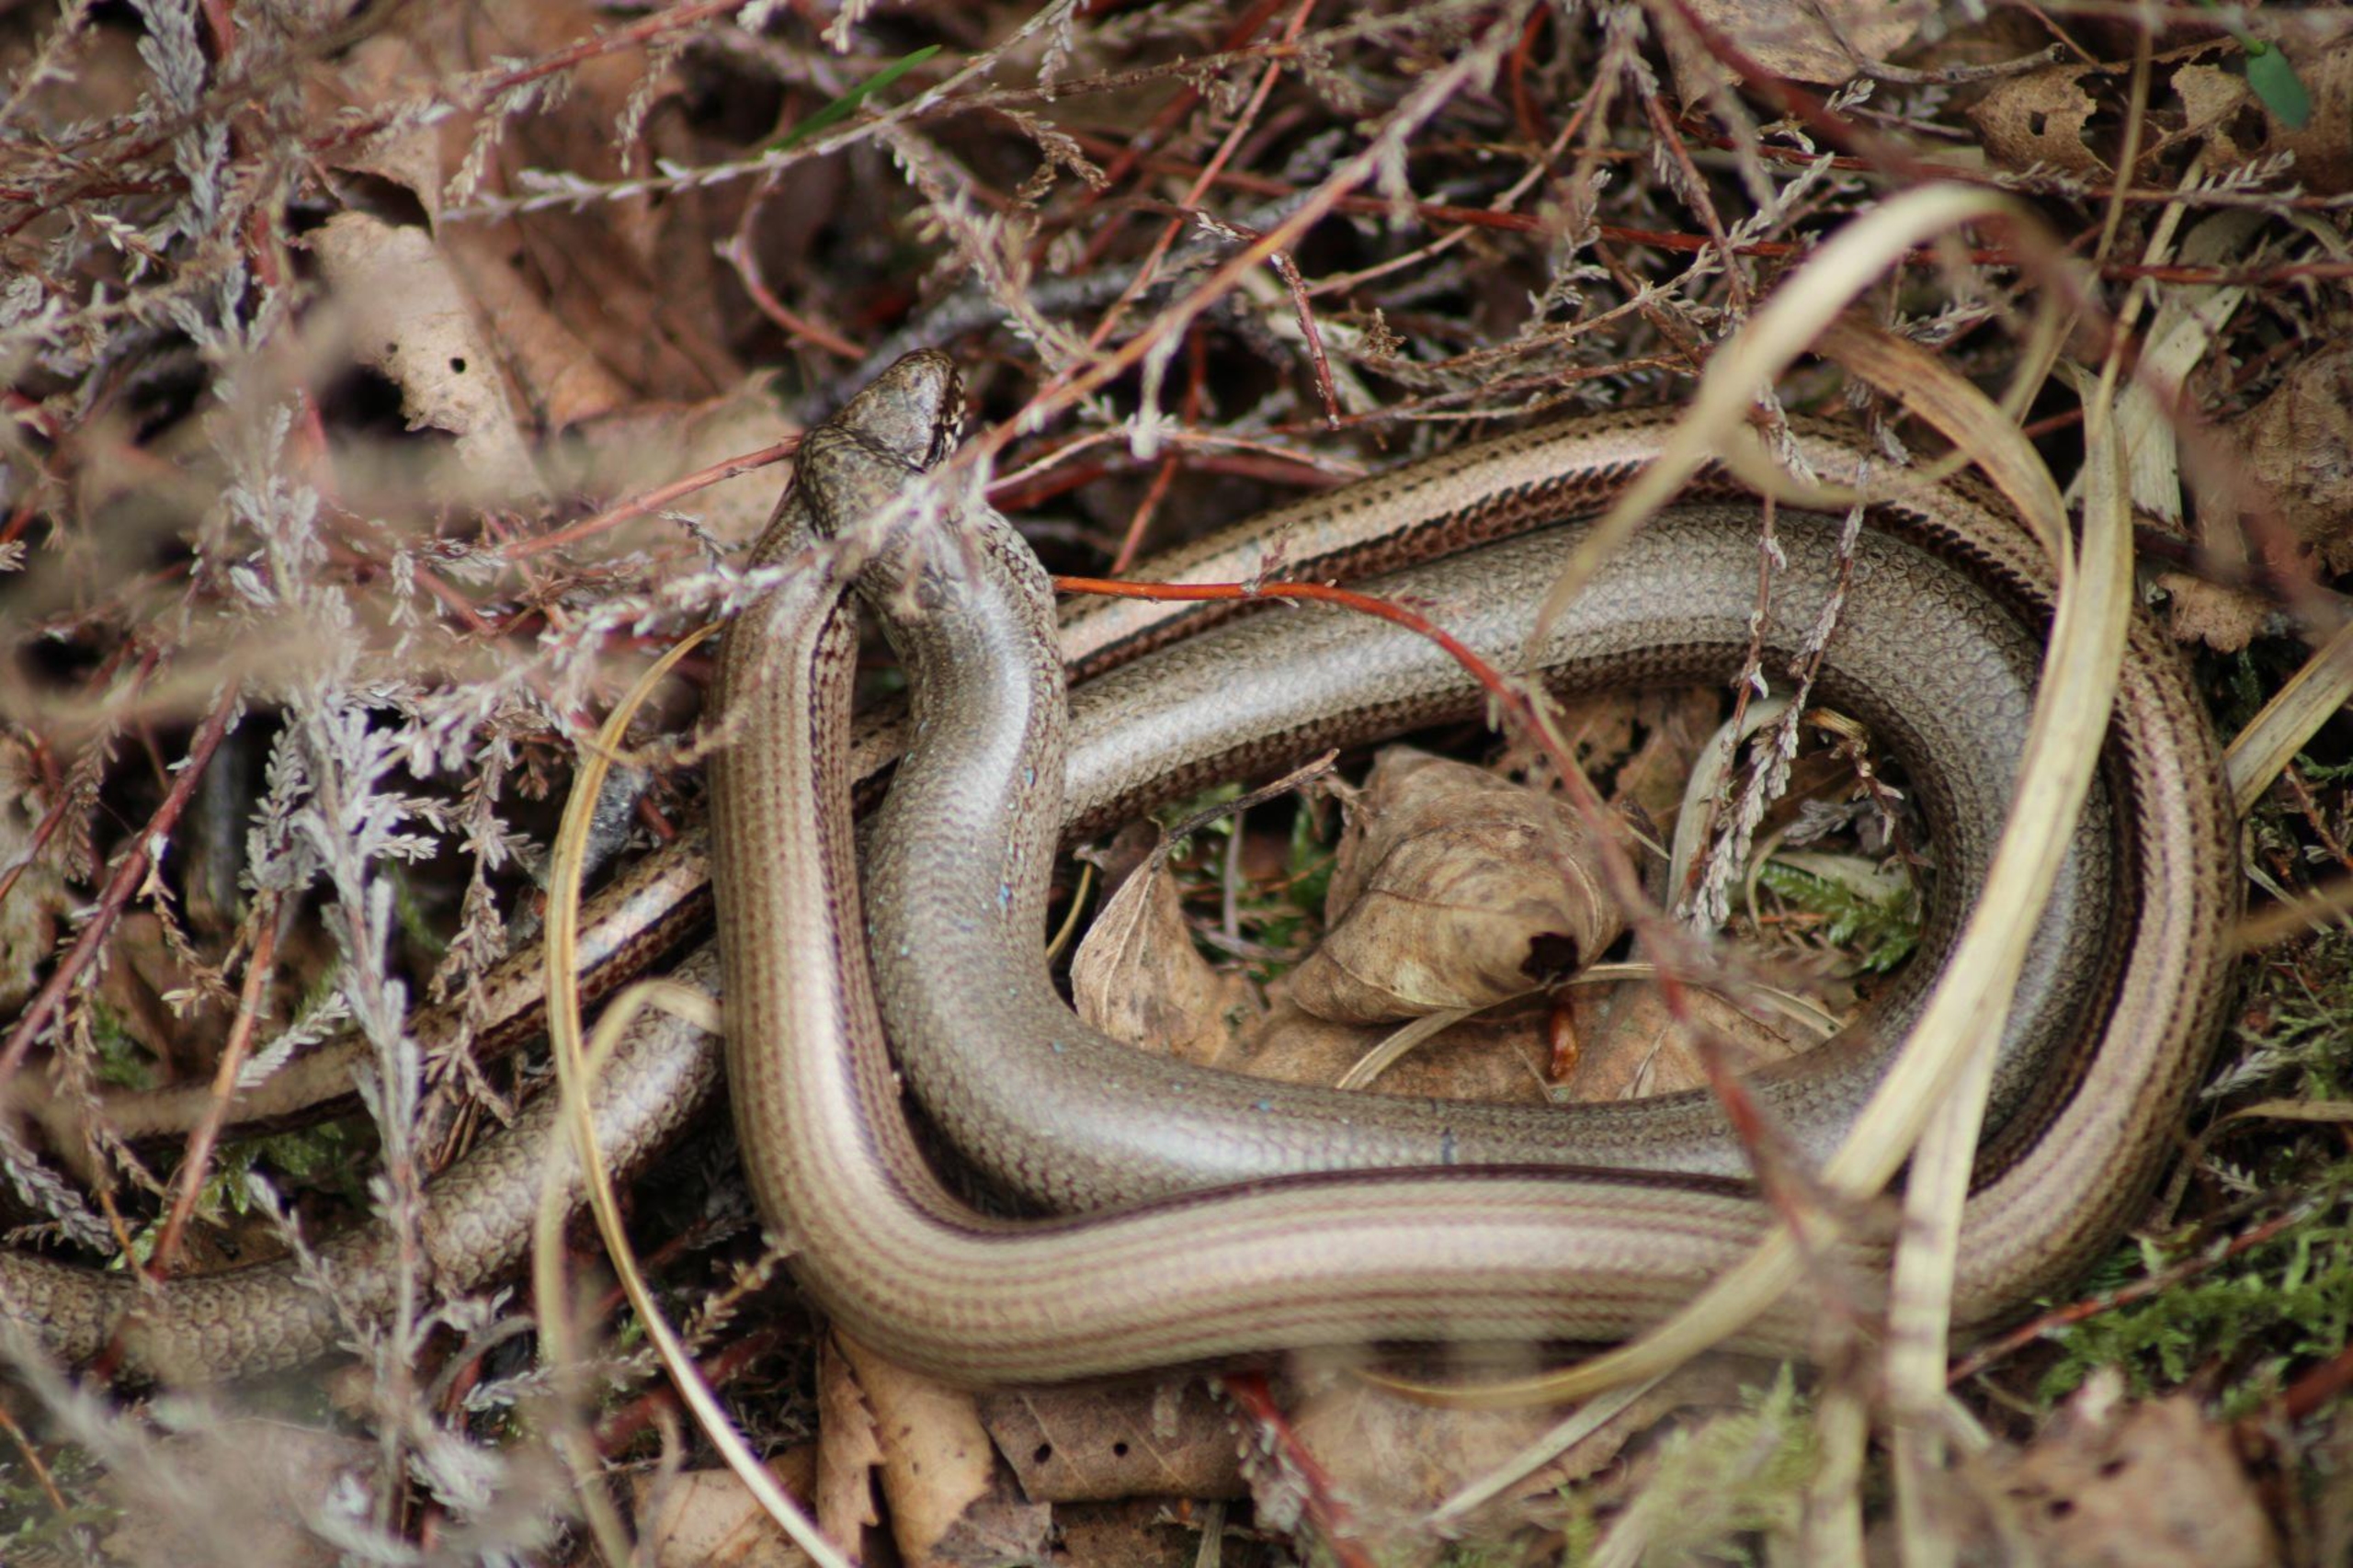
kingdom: Animalia
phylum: Chordata
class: Squamata
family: Anguidae
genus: Anguis
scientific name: Anguis fragilis
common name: Stålorm
